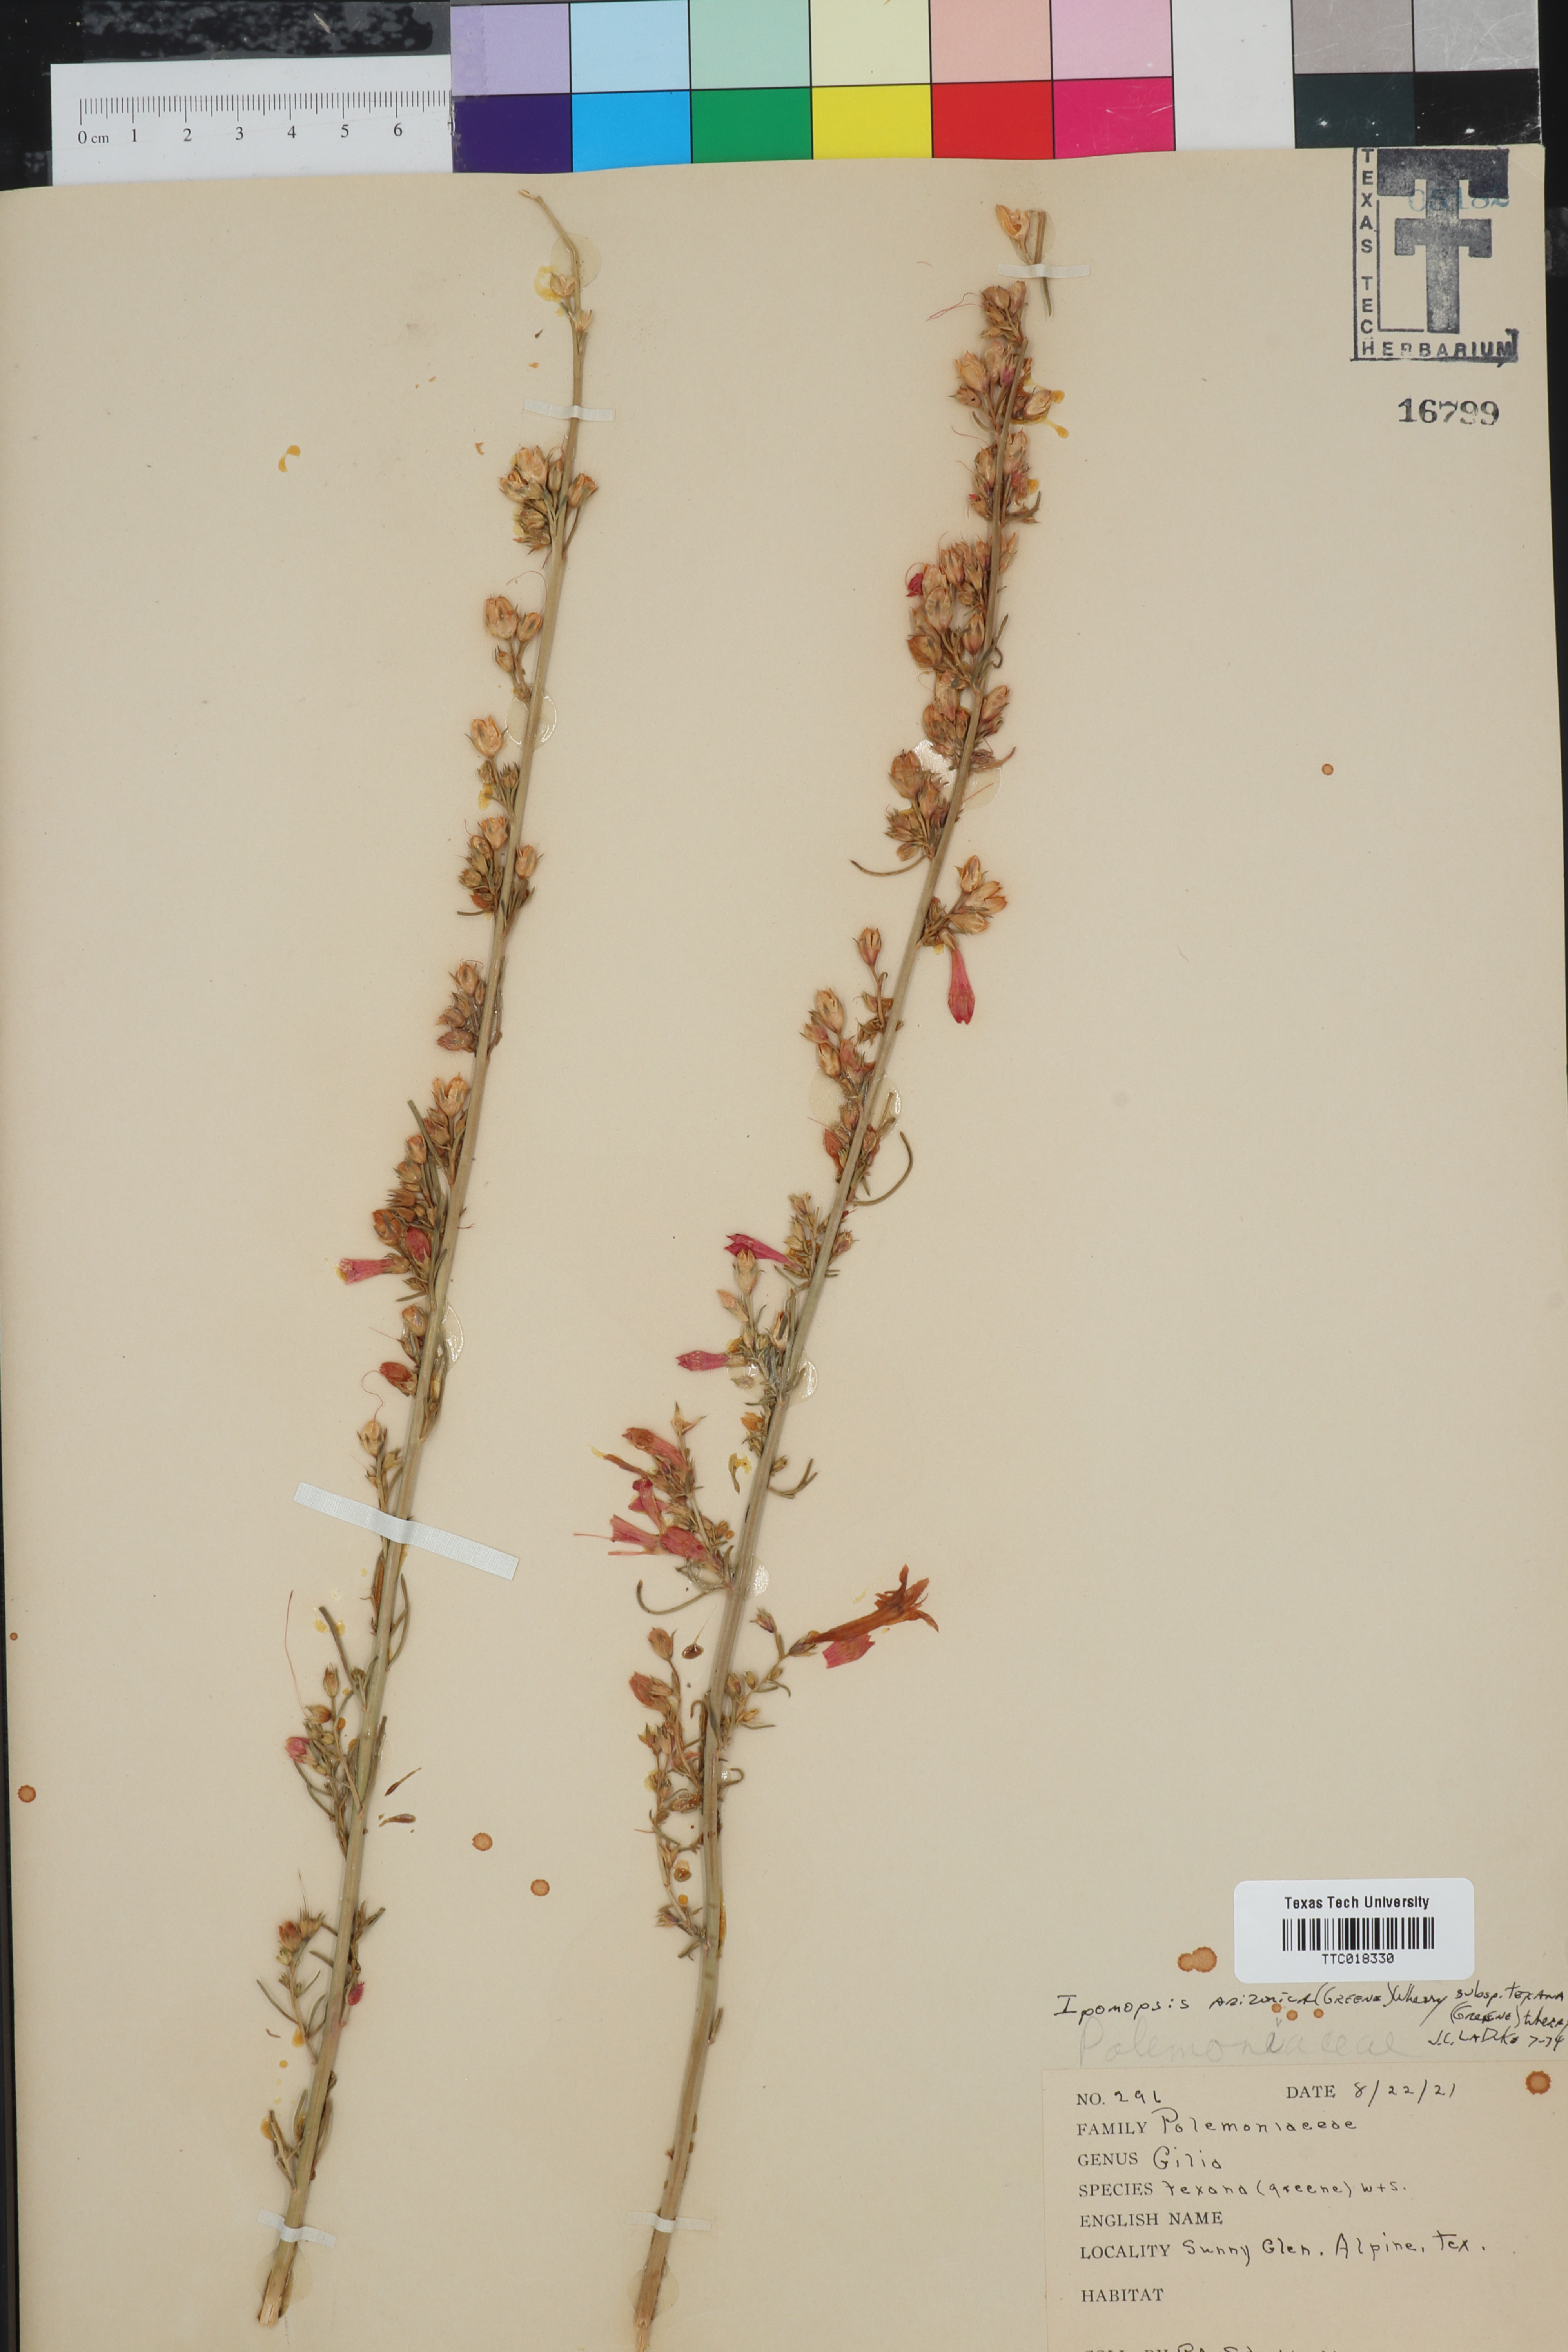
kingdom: Plantae
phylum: Tracheophyta
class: Magnoliopsida
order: Ericales
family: Polemoniaceae
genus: Ipomopsis
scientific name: Ipomopsis aggregata
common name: Scarlet gilia
